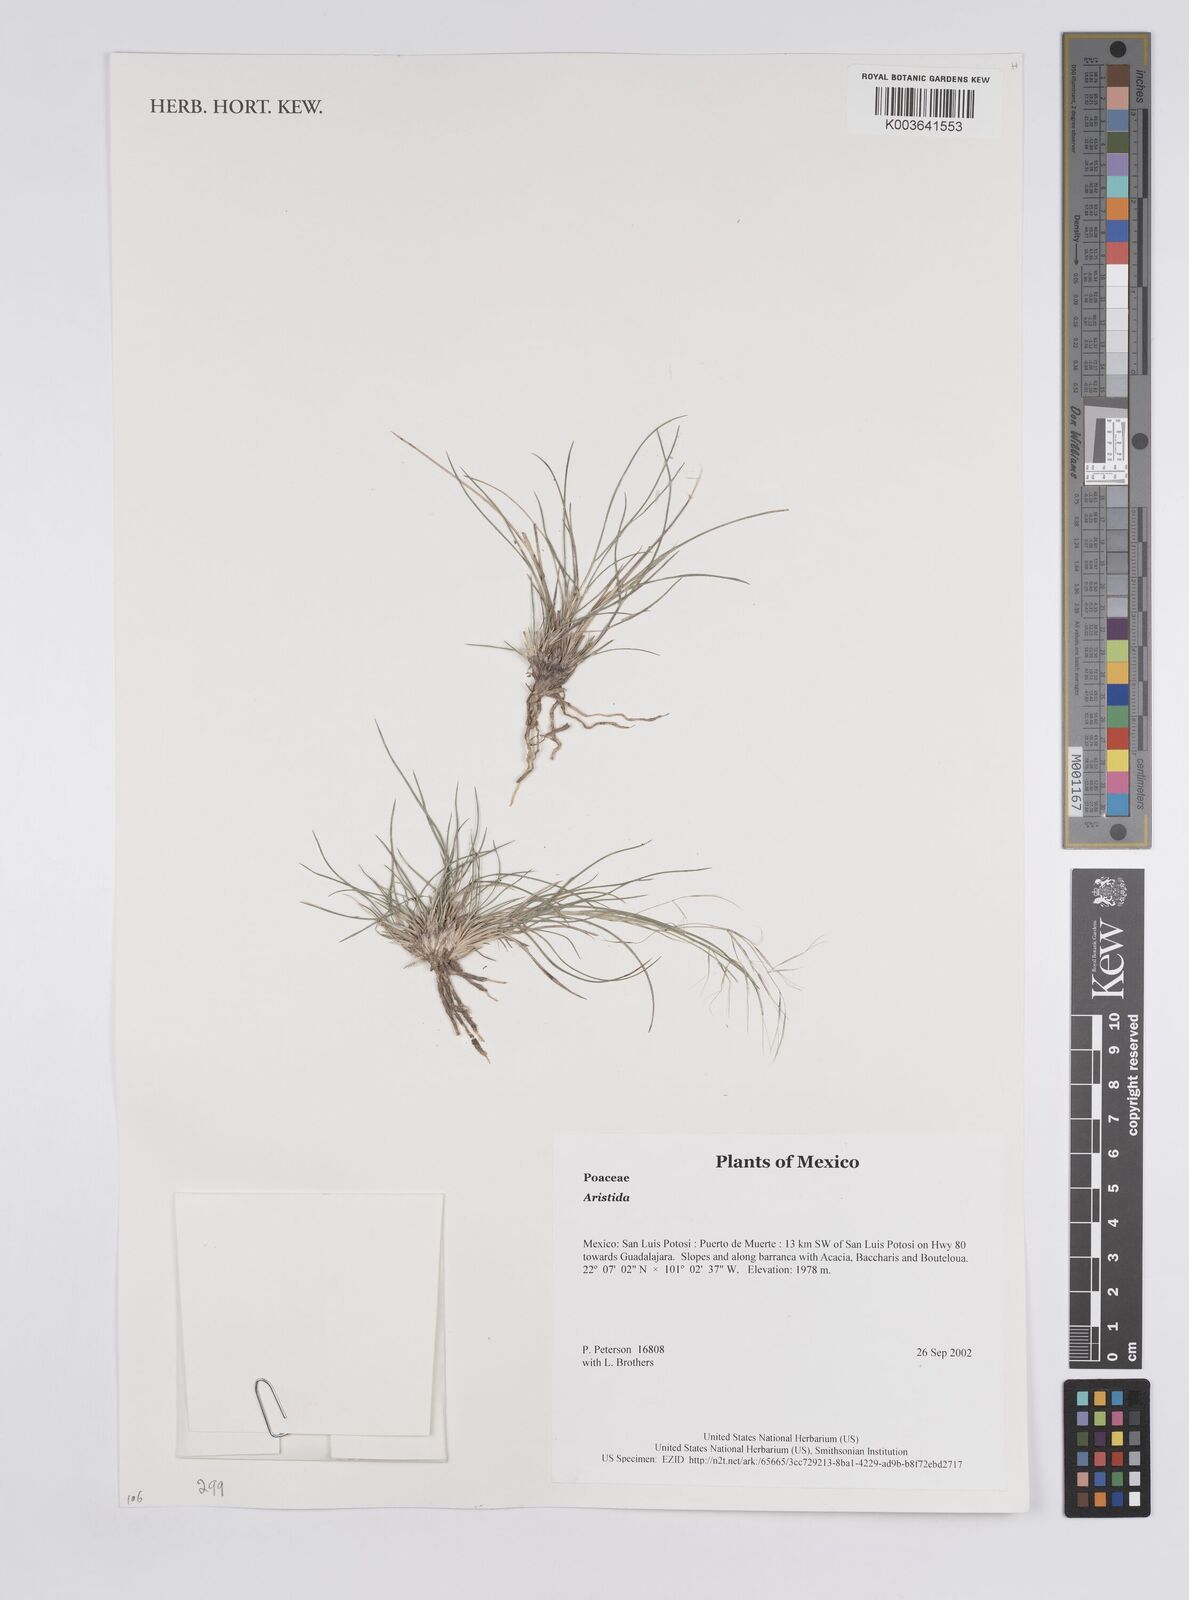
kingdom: Plantae
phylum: Tracheophyta
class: Liliopsida
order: Poales
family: Poaceae
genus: Aristida
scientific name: Aristida
